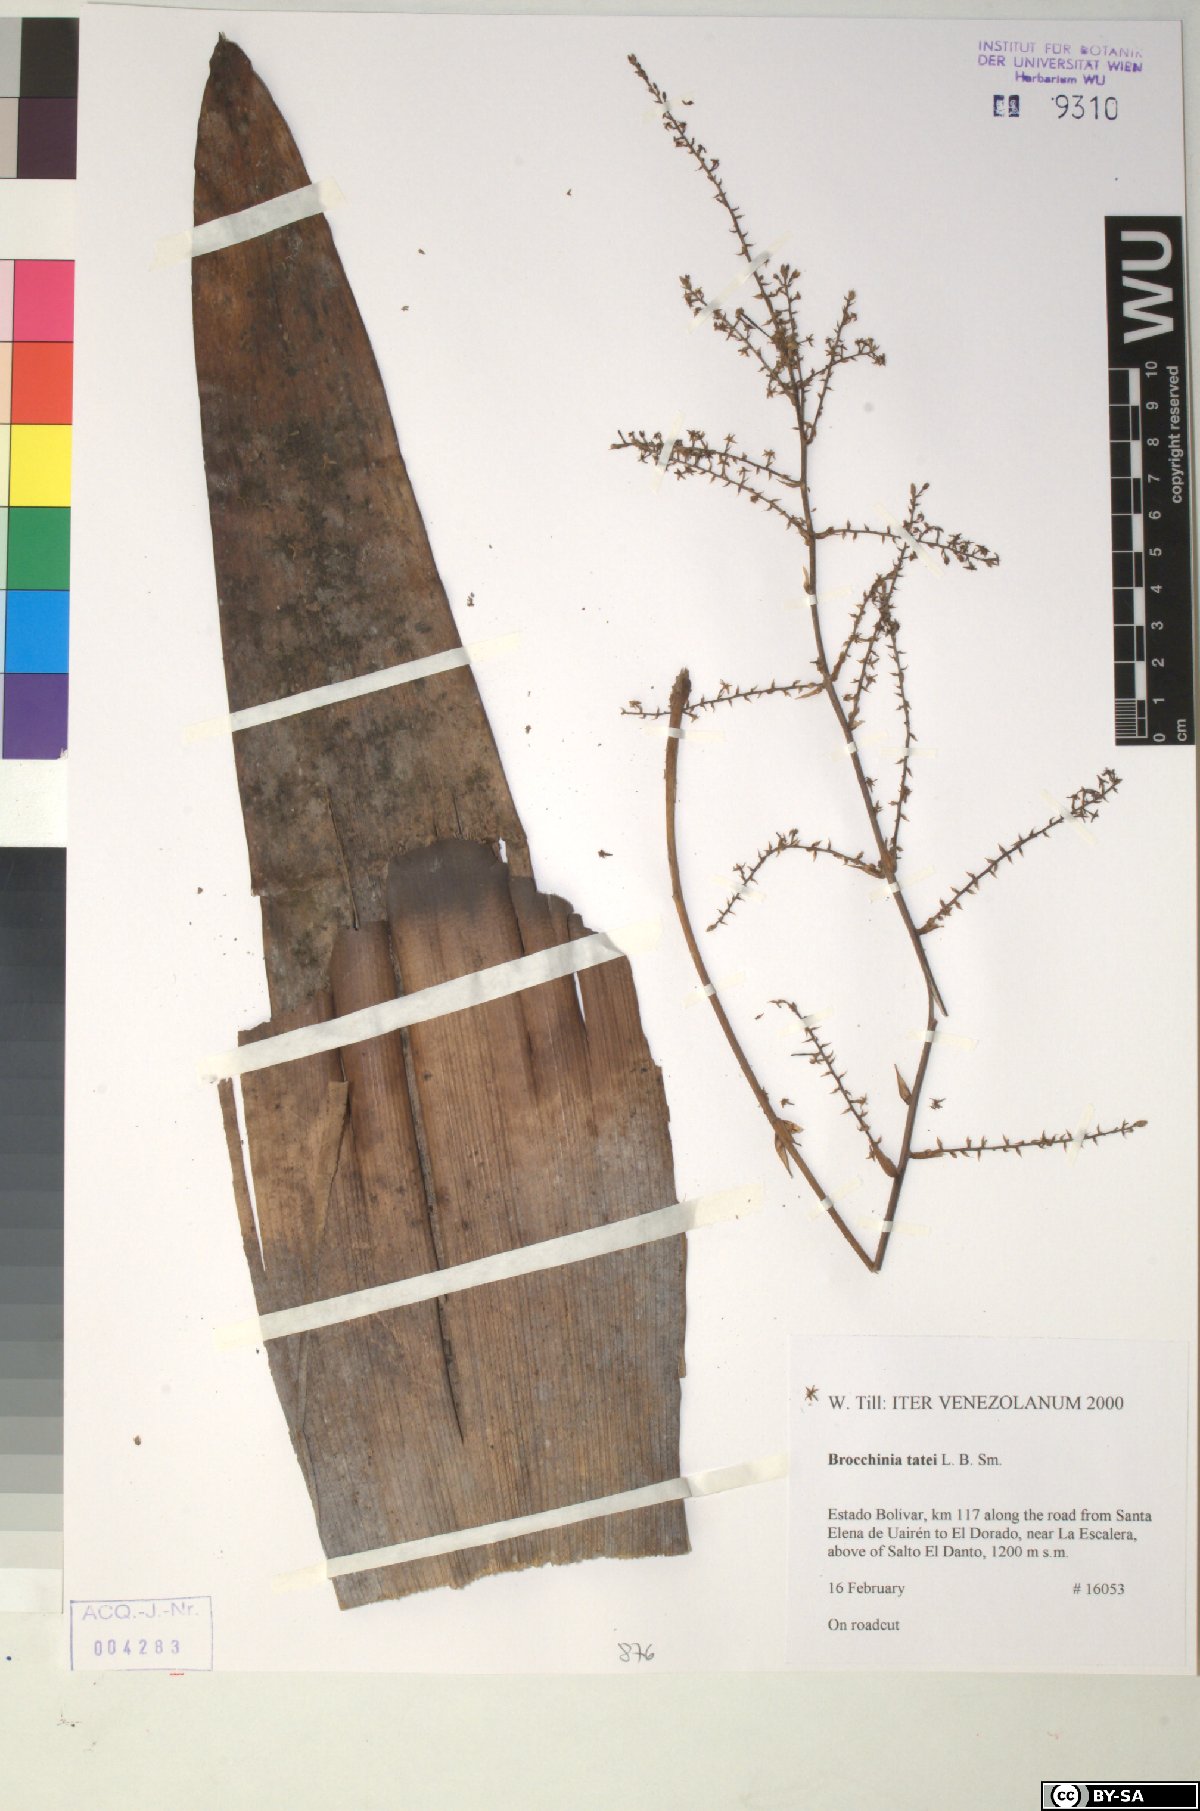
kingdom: Plantae
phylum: Tracheophyta
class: Liliopsida
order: Poales
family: Bromeliaceae
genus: Brocchinia
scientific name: Brocchinia tatei
